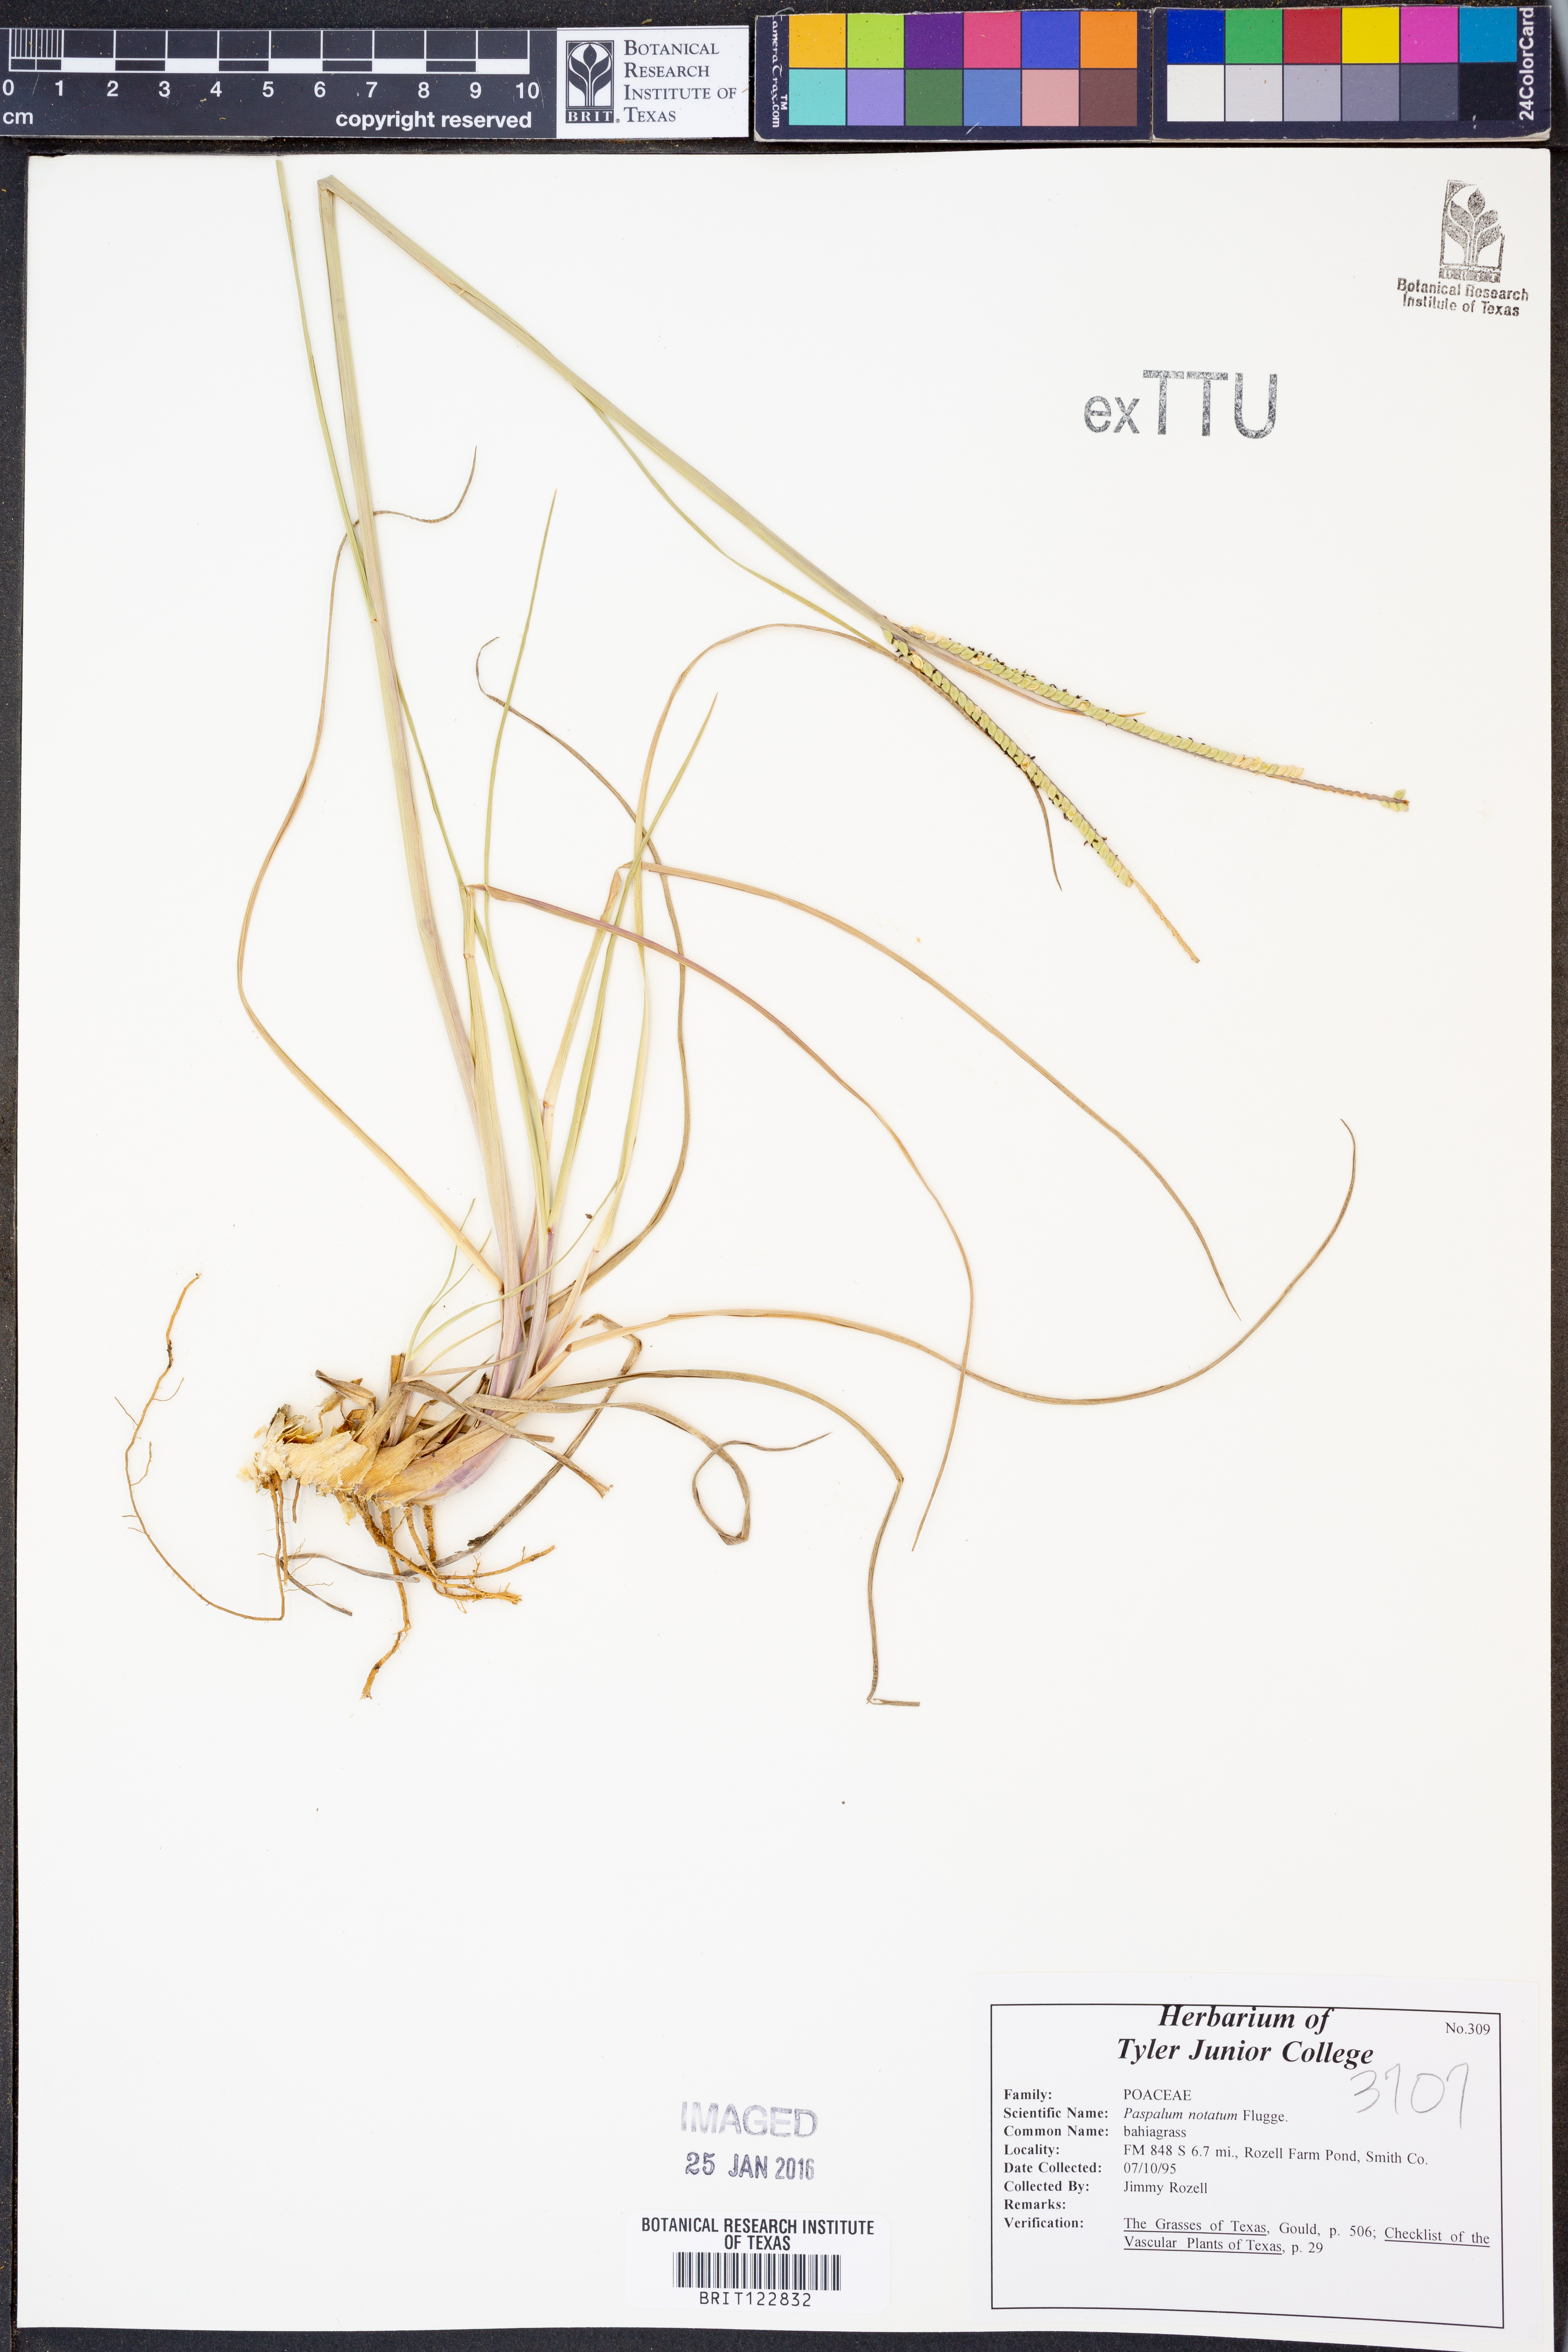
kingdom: Plantae
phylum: Tracheophyta
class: Liliopsida
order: Poales
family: Poaceae
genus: Paspalum
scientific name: Paspalum notatum
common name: Bahiagrass
